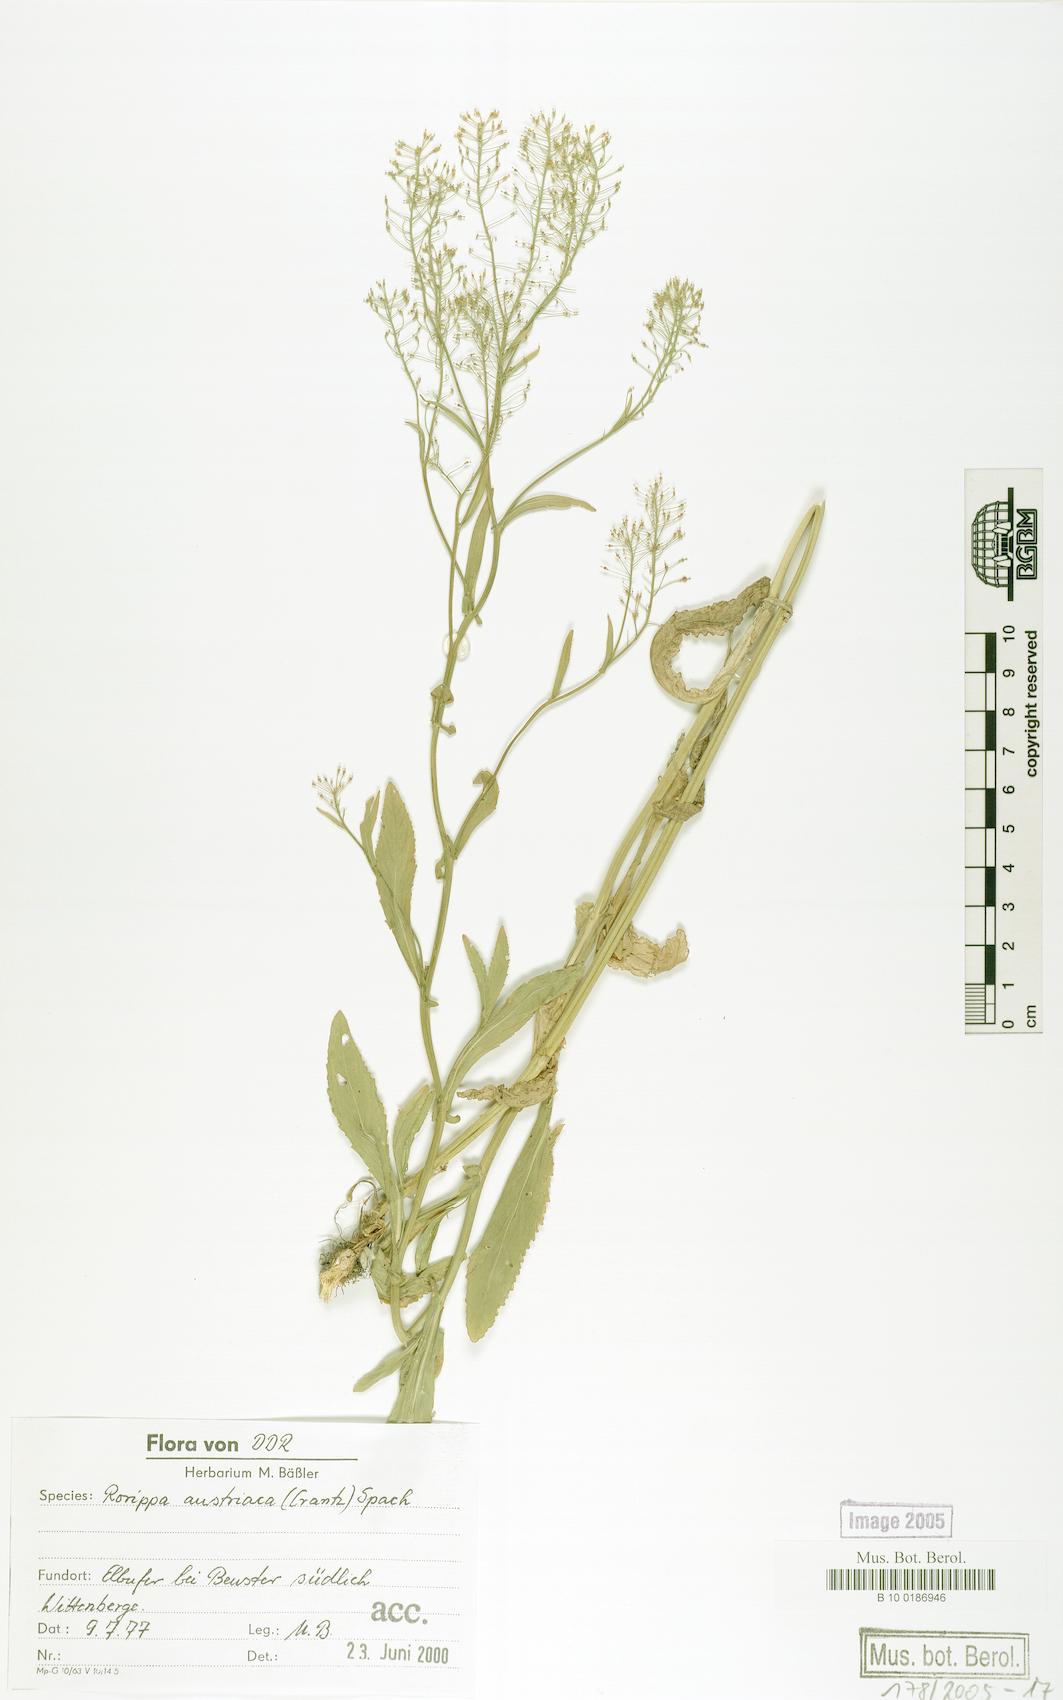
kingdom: Plantae
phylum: Tracheophyta
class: Magnoliopsida
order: Brassicales
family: Brassicaceae
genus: Rorippa
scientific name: Rorippa austriaca
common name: Austrian yellow-cress
